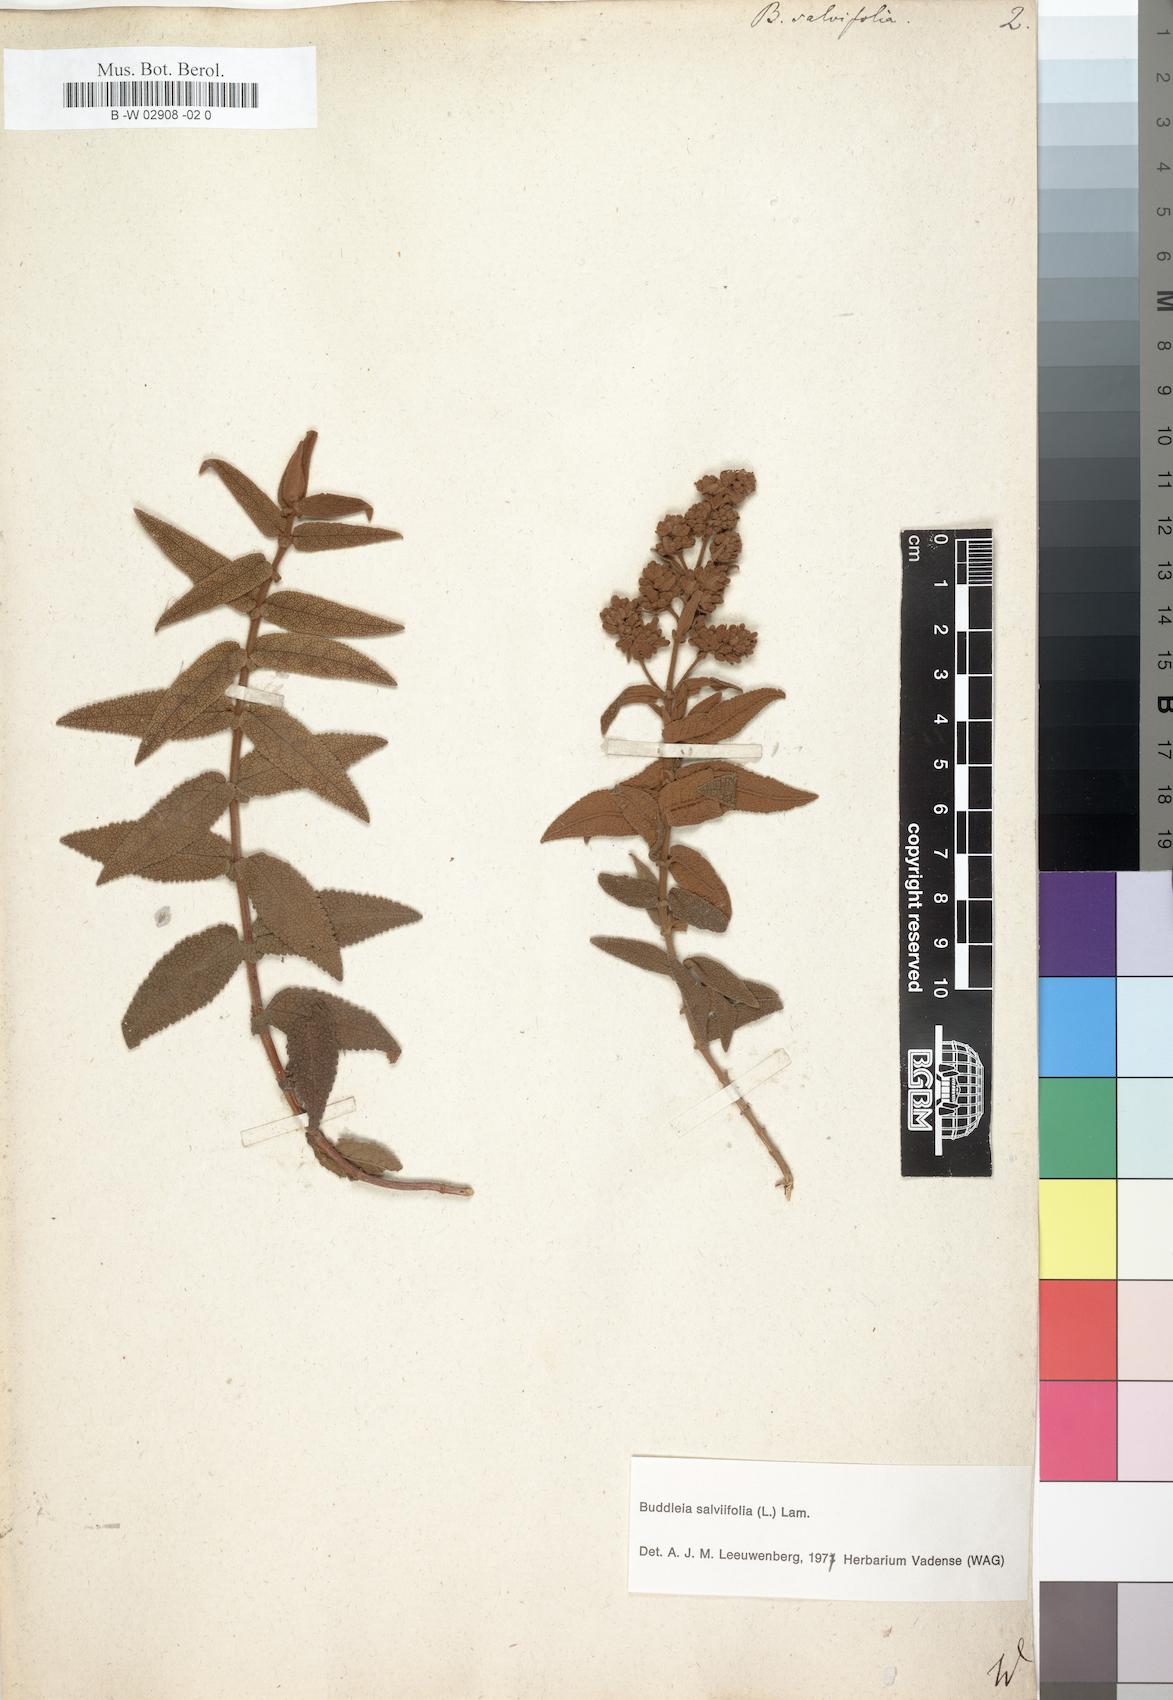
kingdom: Plantae
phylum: Tracheophyta
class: Magnoliopsida
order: Lamiales
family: Scrophulariaceae
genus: Buddleja
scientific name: Buddleja salviifolia
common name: Sagewood
